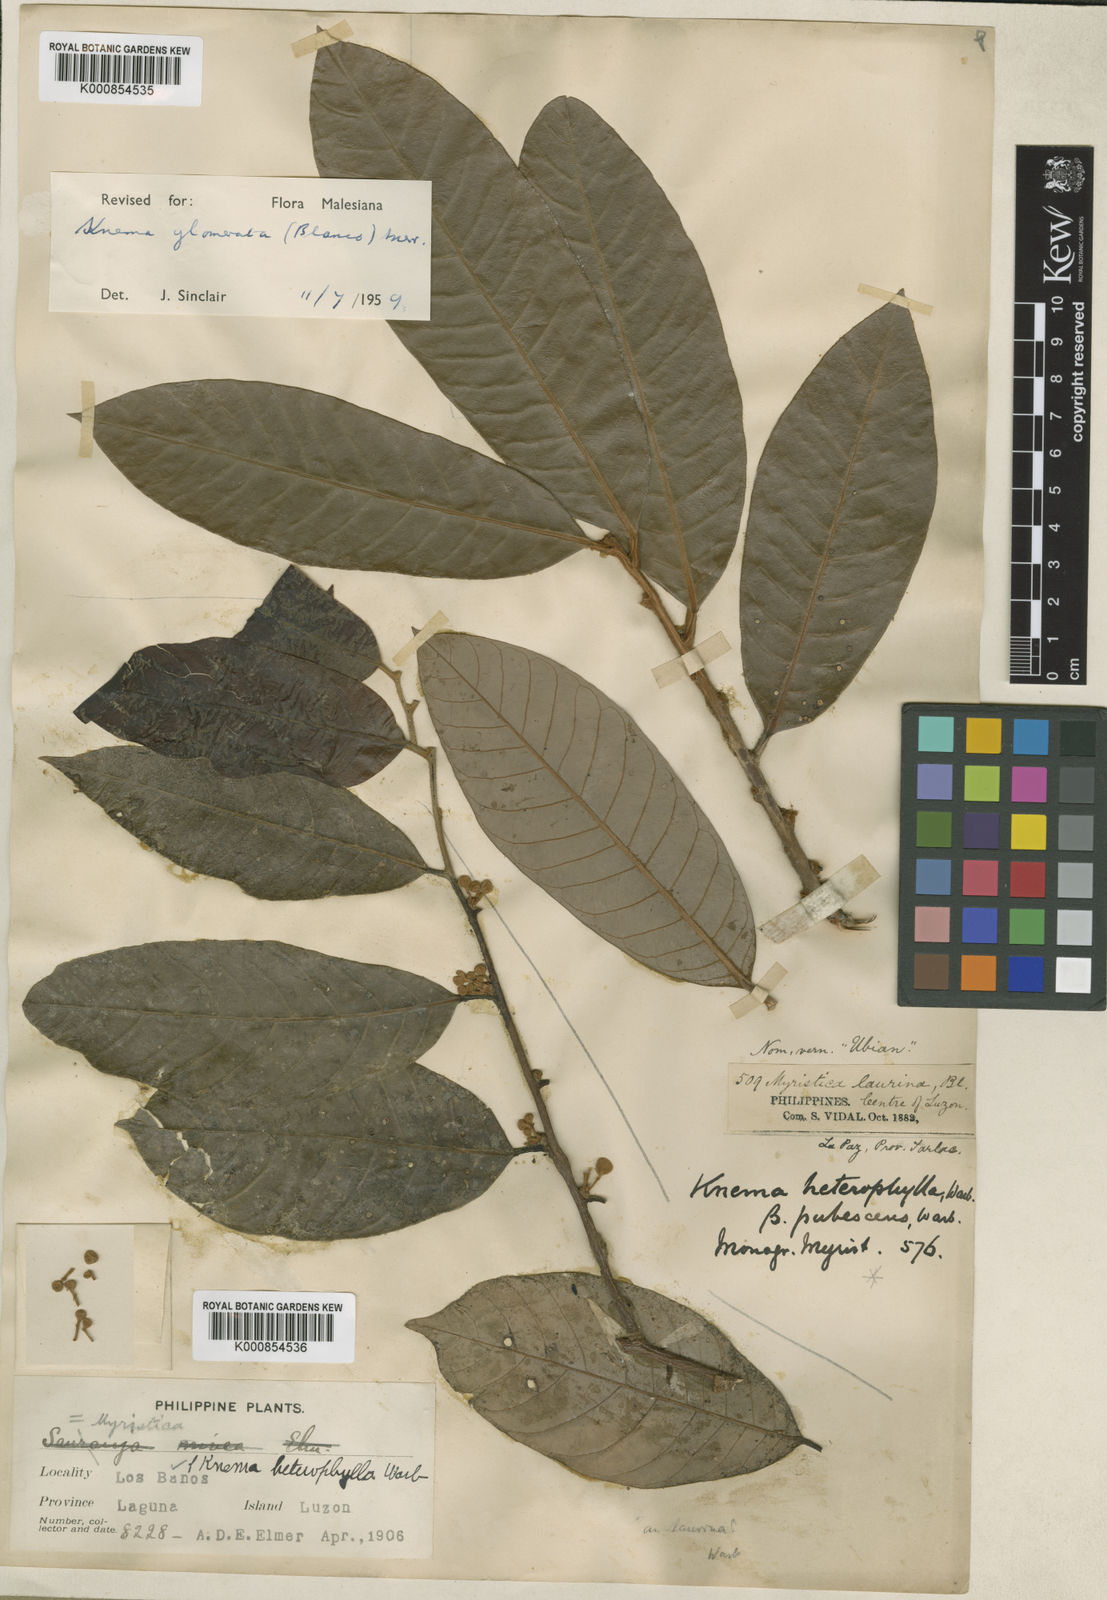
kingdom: Plantae
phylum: Tracheophyta
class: Magnoliopsida
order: Magnoliales
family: Myristicaceae
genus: Knema
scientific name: Knema glomerata
